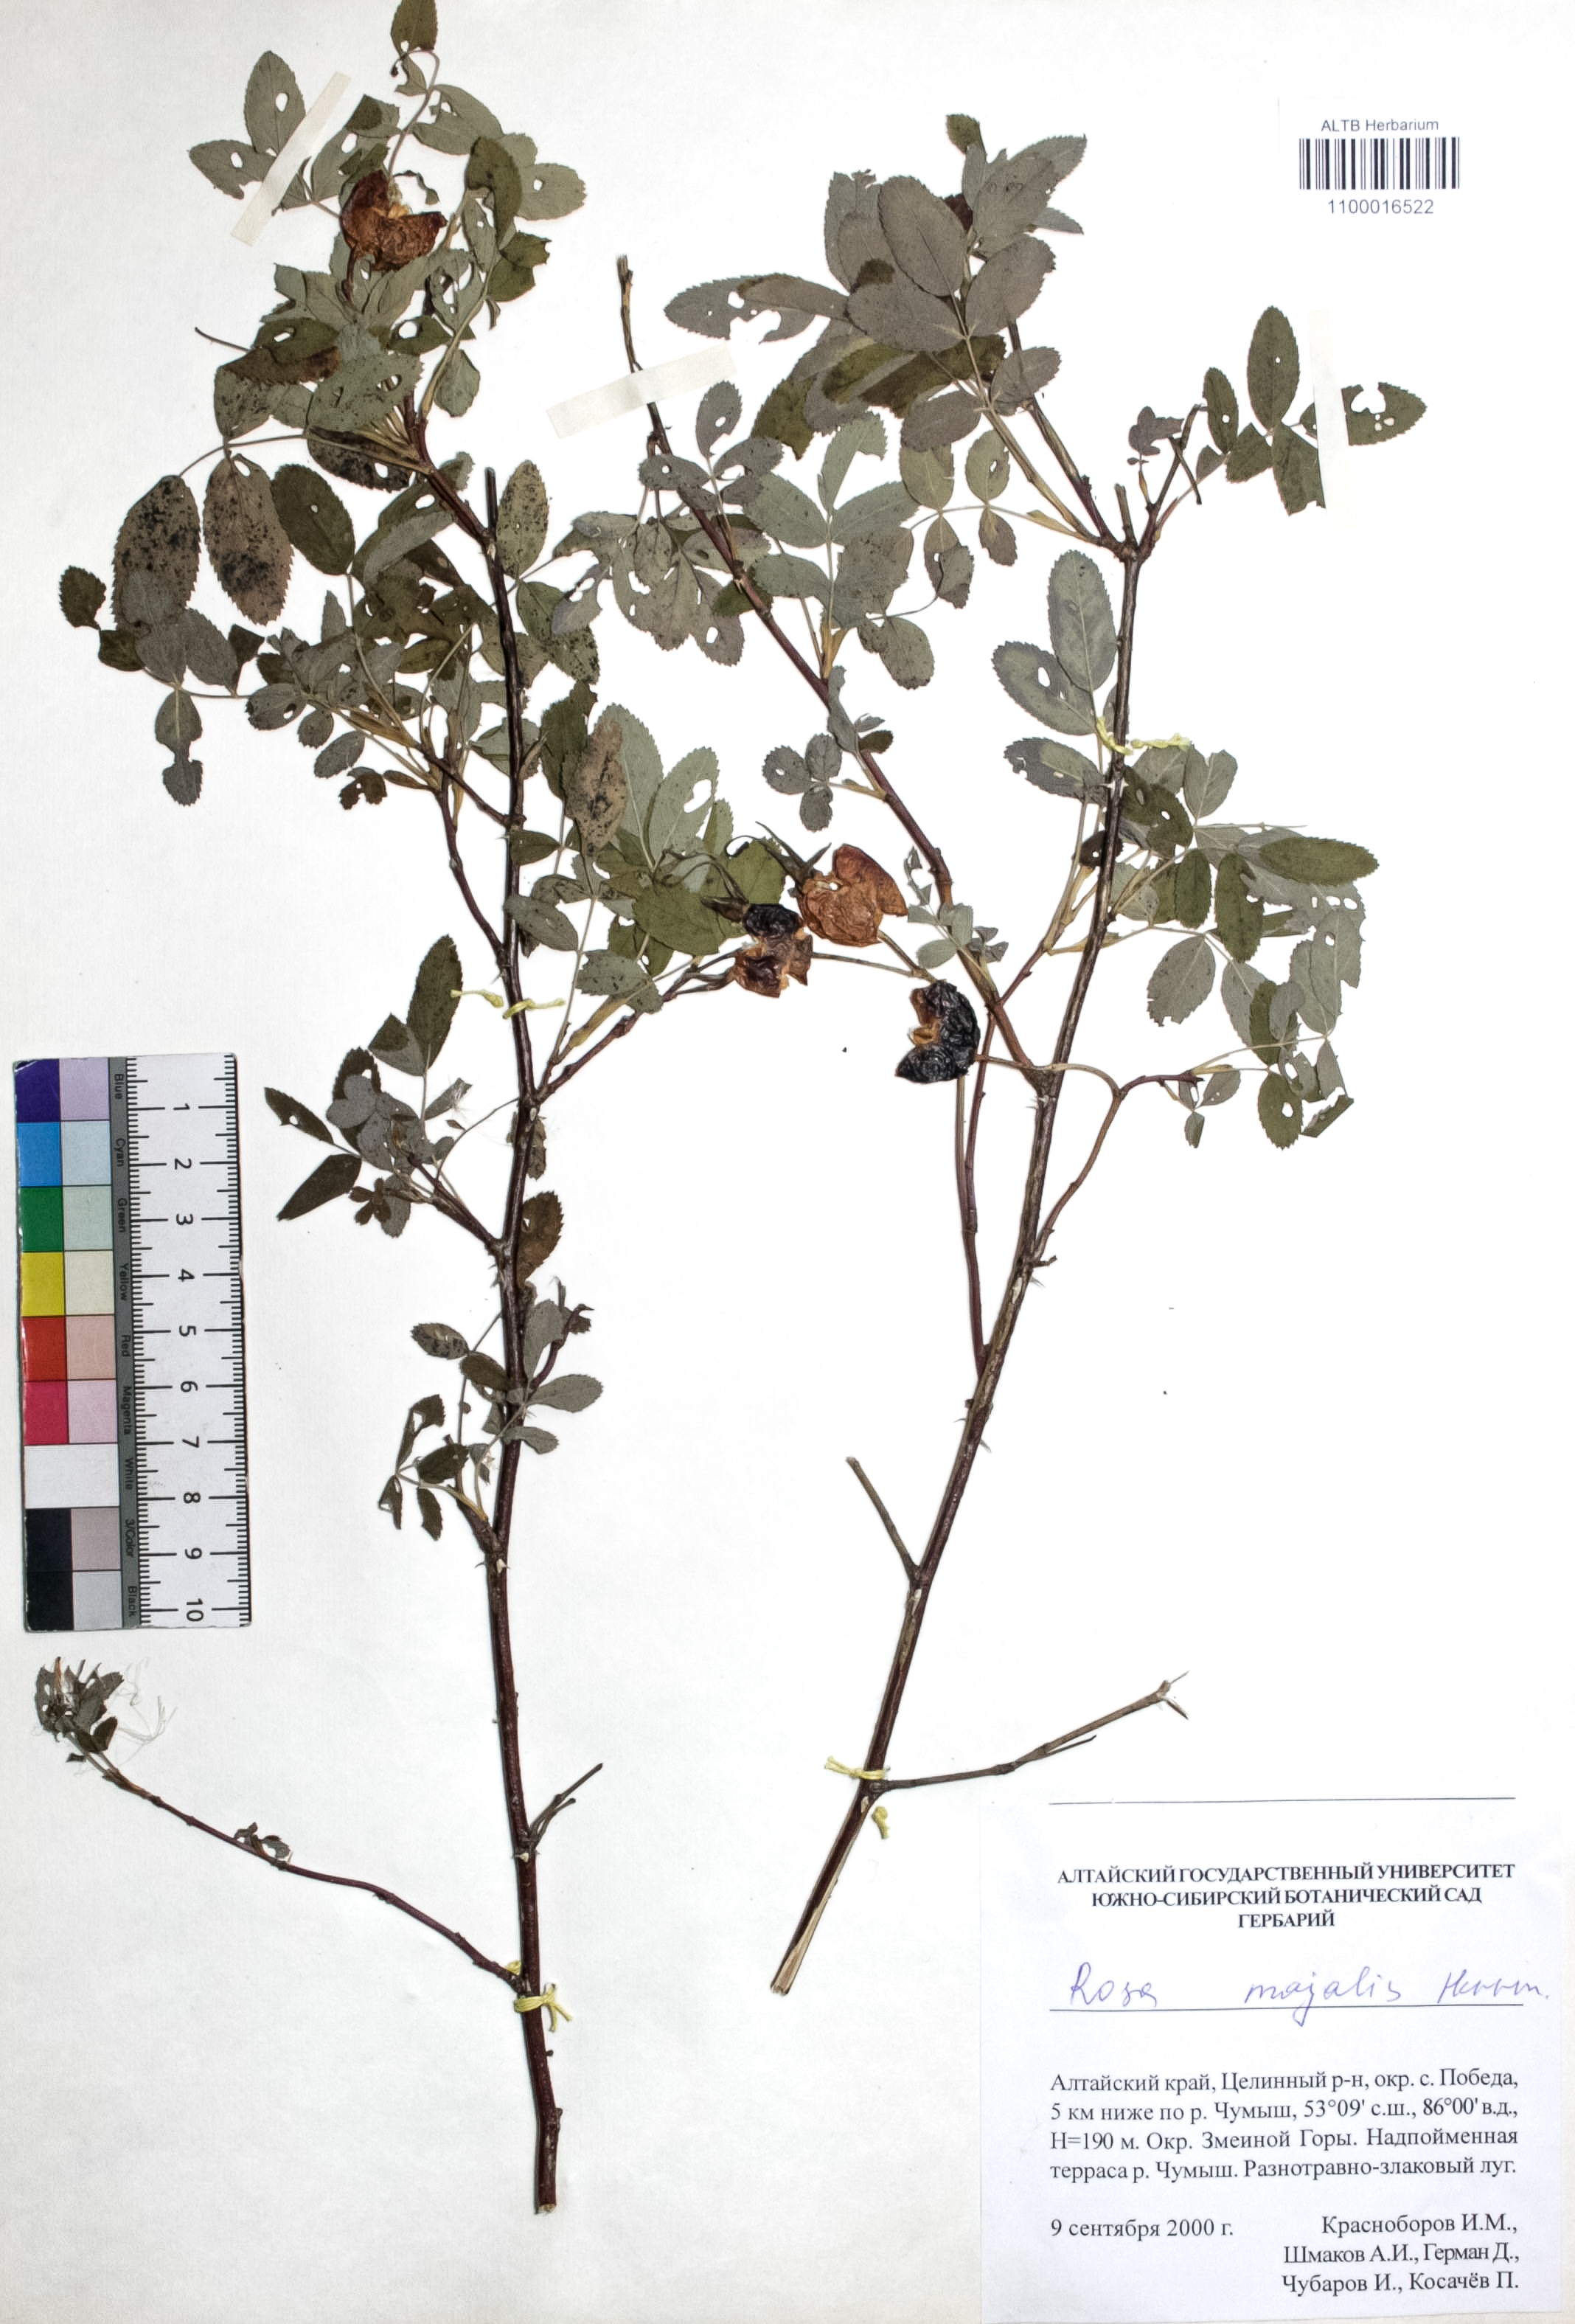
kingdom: Plantae
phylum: Tracheophyta
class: Magnoliopsida
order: Rosales
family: Rosaceae
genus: Rosa
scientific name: Rosa majalis
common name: Cinnamon rose
